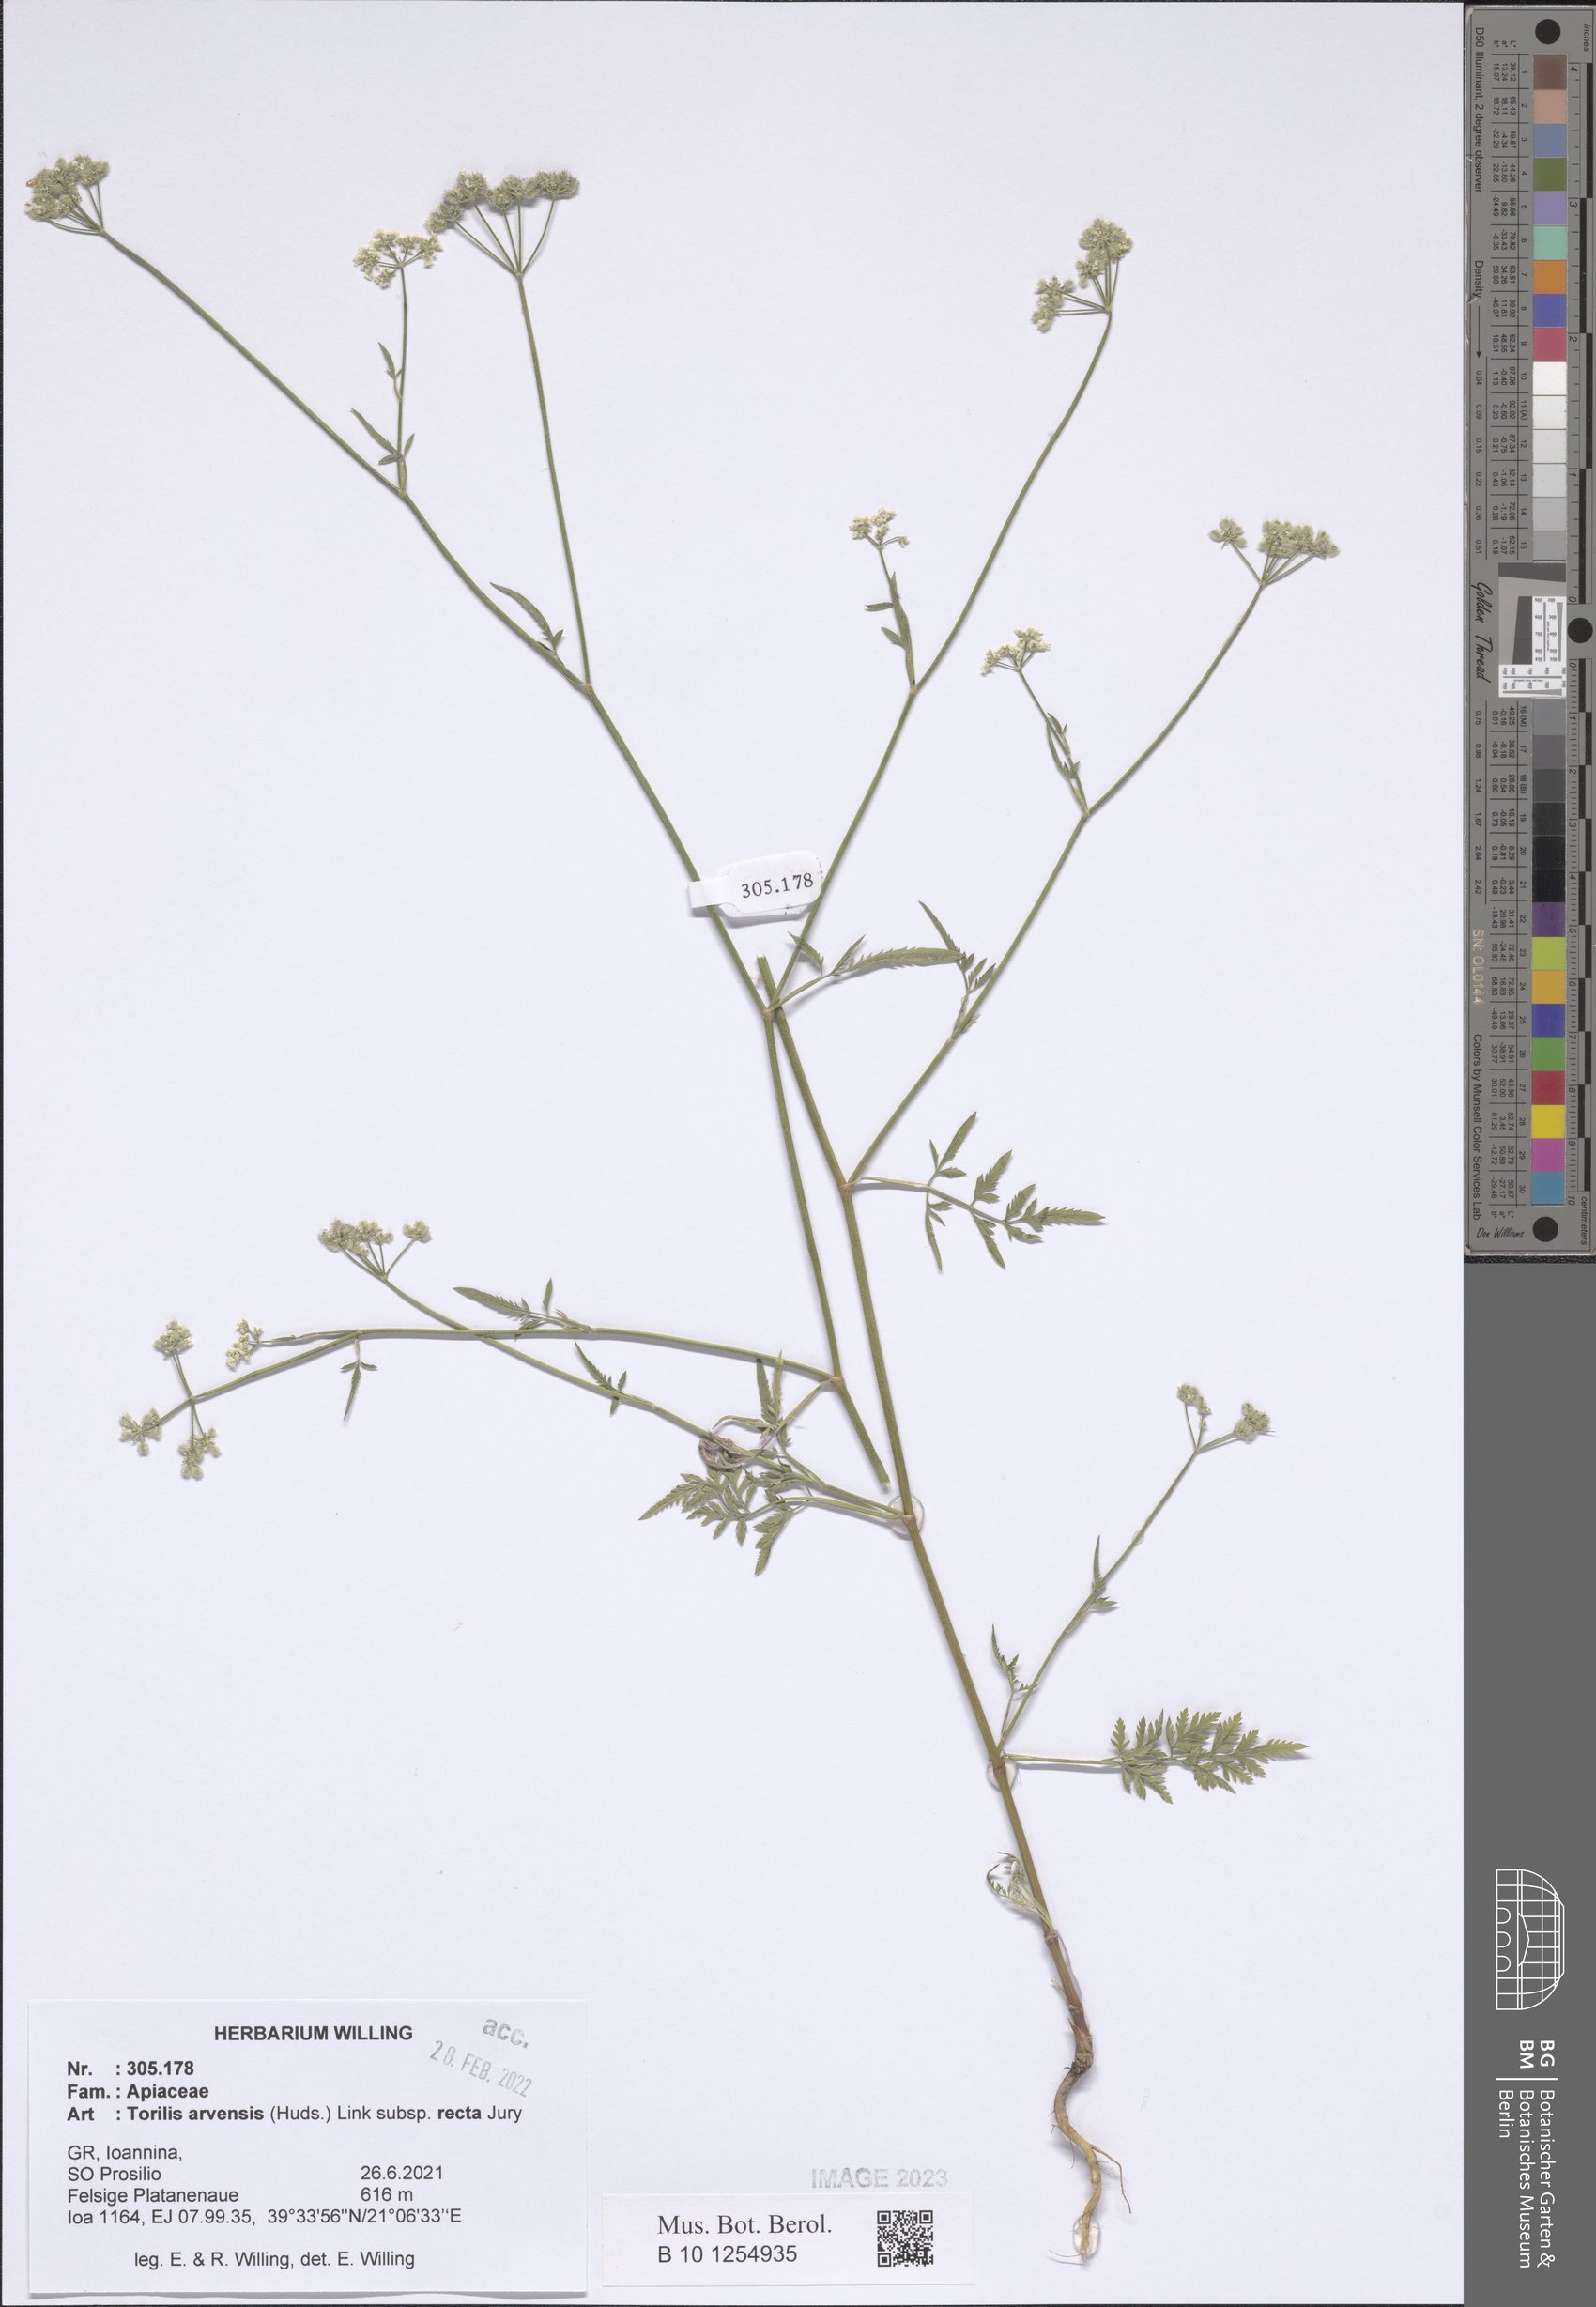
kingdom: Plantae
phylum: Tracheophyta
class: Magnoliopsida
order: Apiales
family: Apiaceae
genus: Torilis
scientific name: Torilis arvensis
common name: Spreading hedge-parsley
